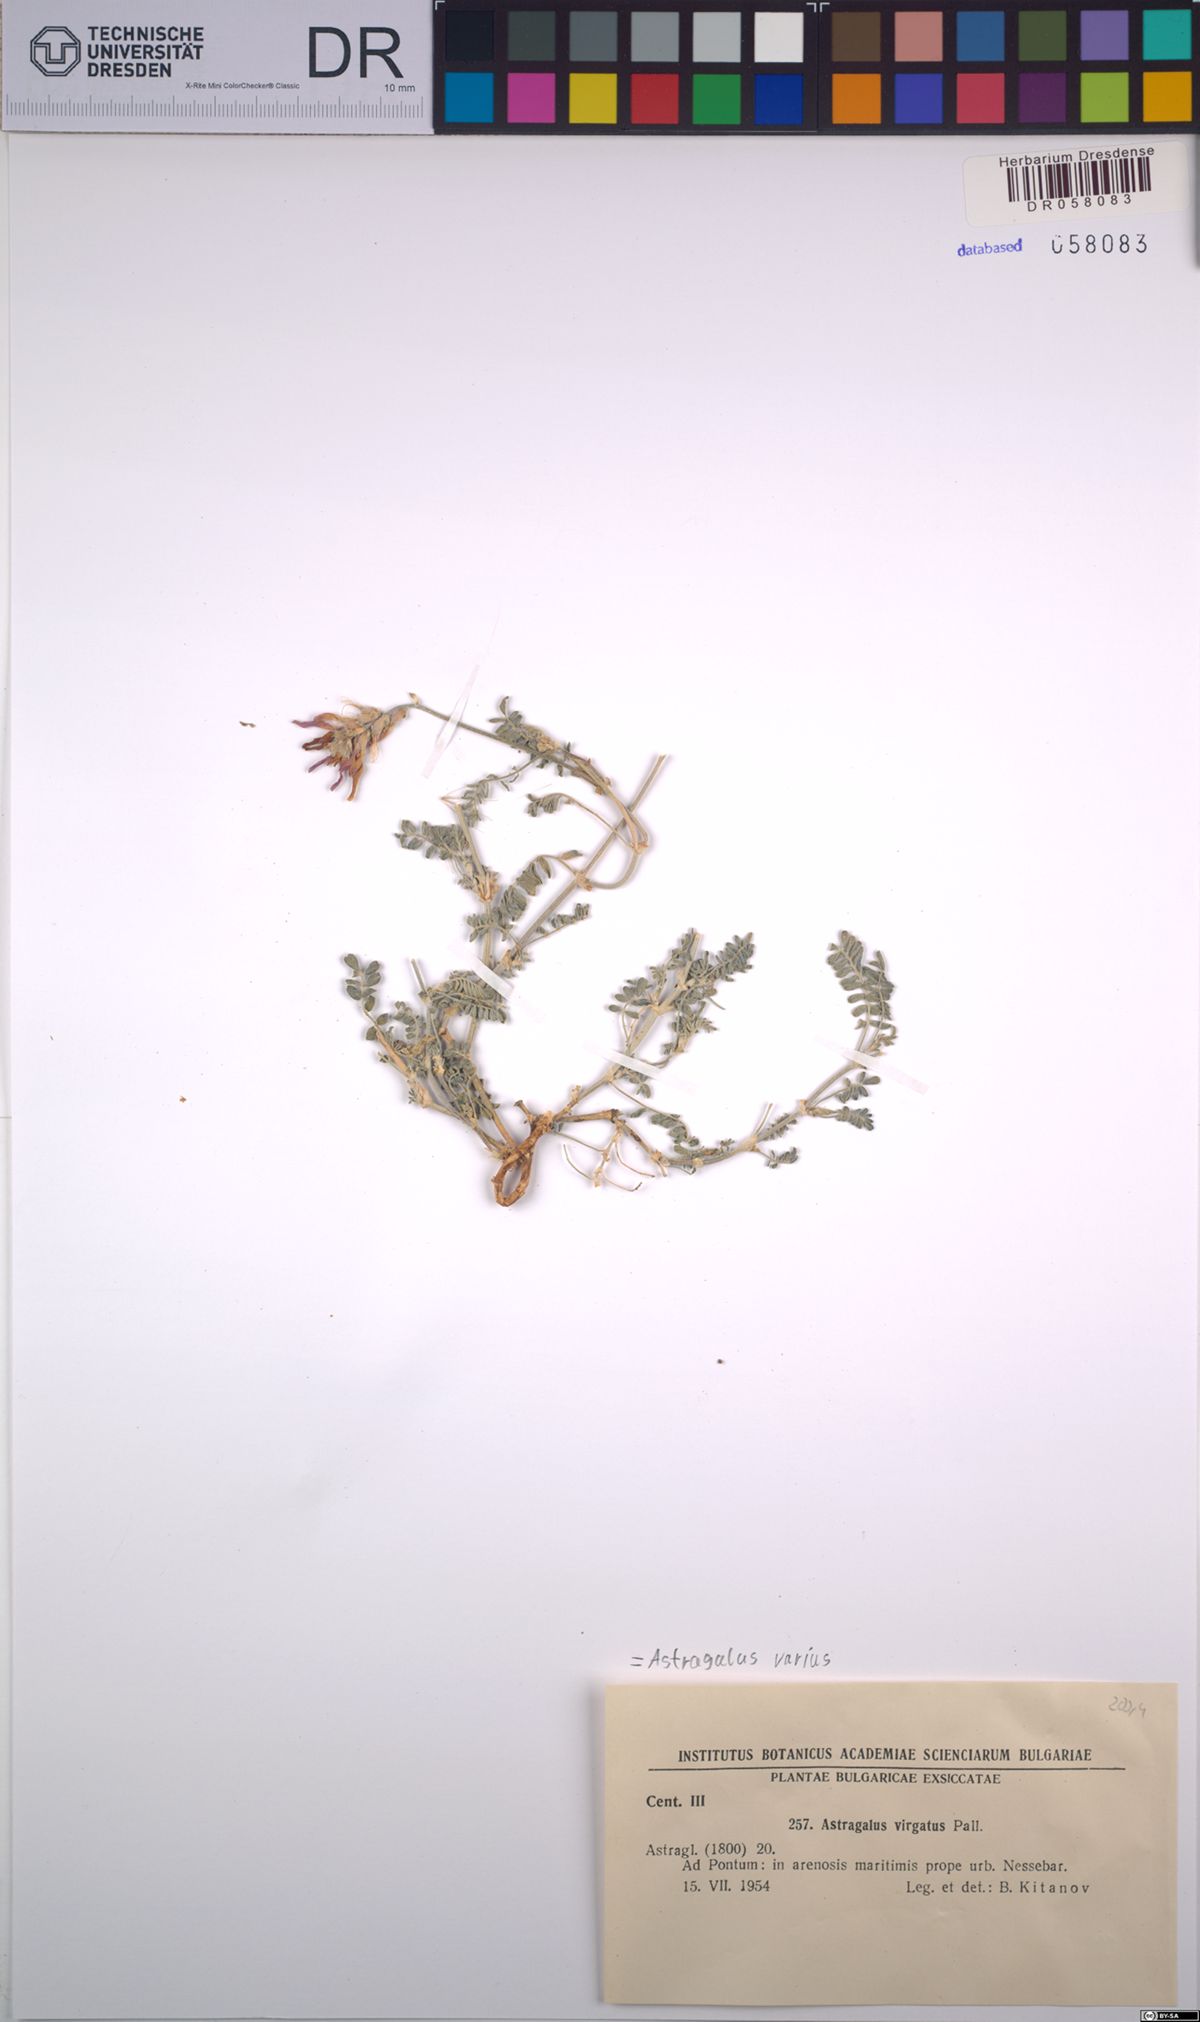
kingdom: Plantae
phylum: Tracheophyta
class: Magnoliopsida
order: Fabales
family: Fabaceae
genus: Astragalus
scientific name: Astragalus varius
